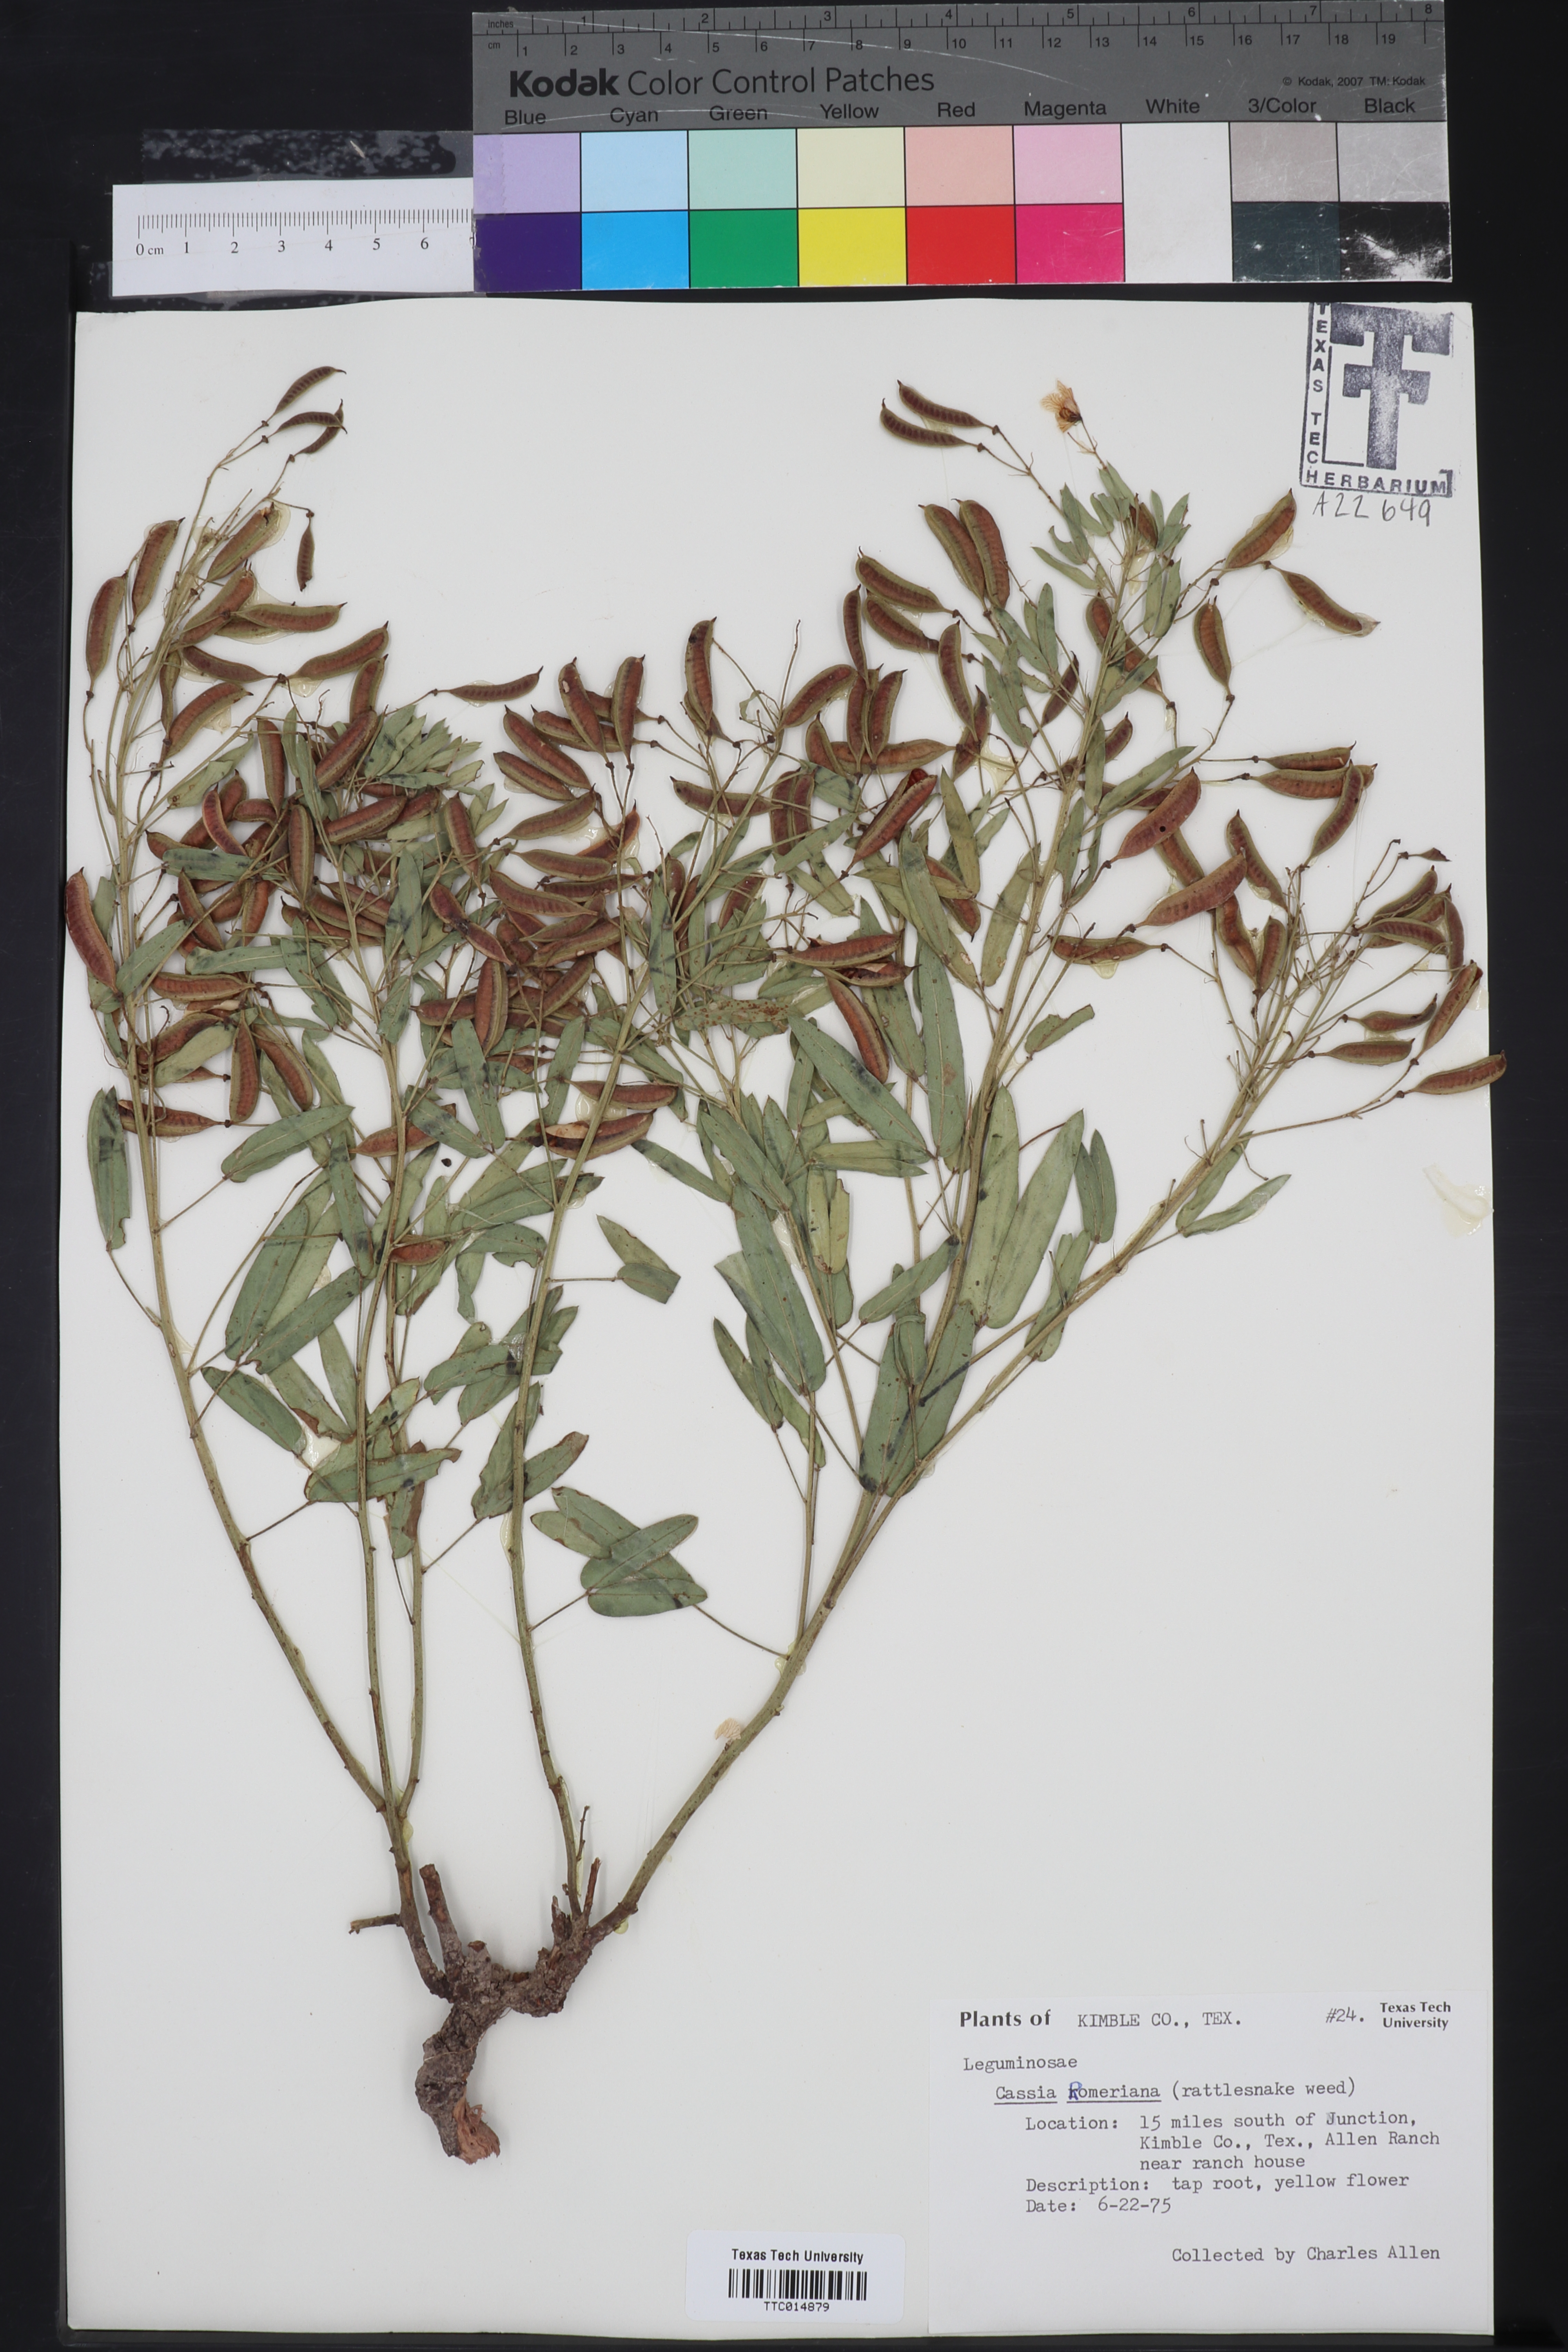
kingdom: Plantae
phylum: Tracheophyta
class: Magnoliopsida
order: Fabales
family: Fabaceae
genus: Senna
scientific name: Senna roemeriana
